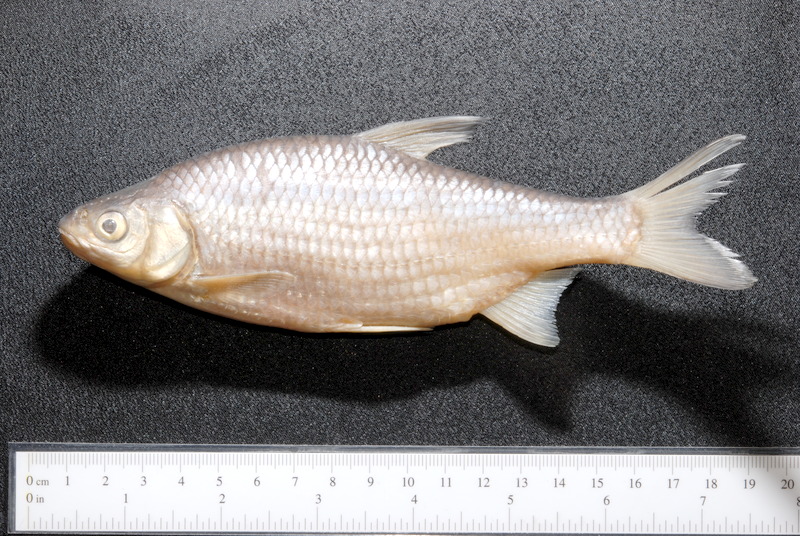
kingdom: Animalia
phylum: Chordata
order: Cypriniformes
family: Cyprinidae
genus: Rutilus
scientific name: Rutilus rutilus
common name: Roach
